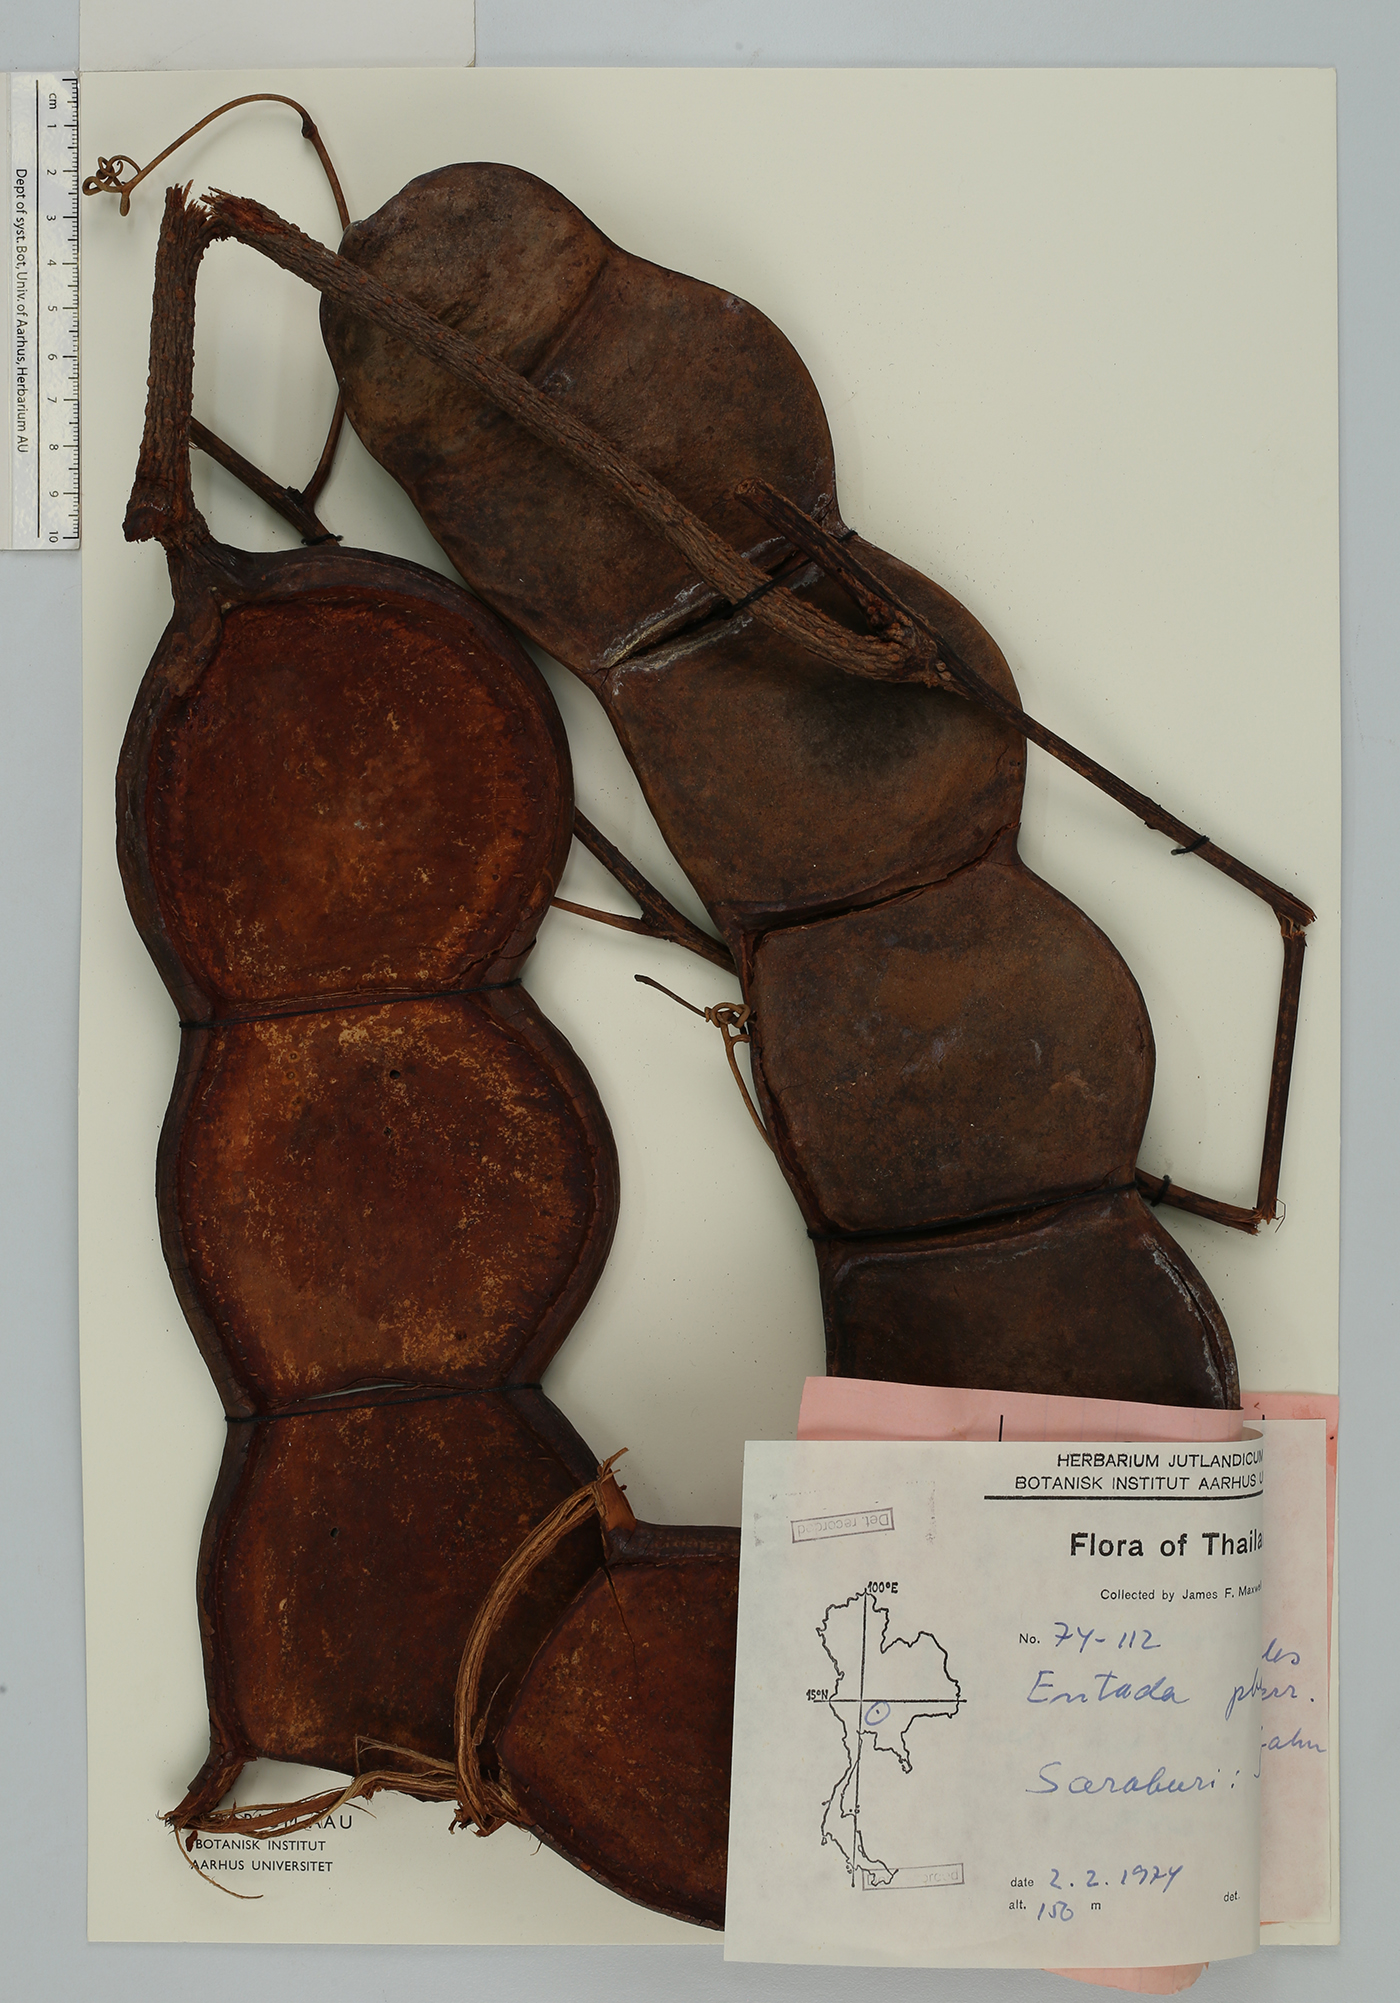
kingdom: Plantae
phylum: Tracheophyta
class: Magnoliopsida
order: Fabales
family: Fabaceae
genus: Entada
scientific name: Entada rheedei
